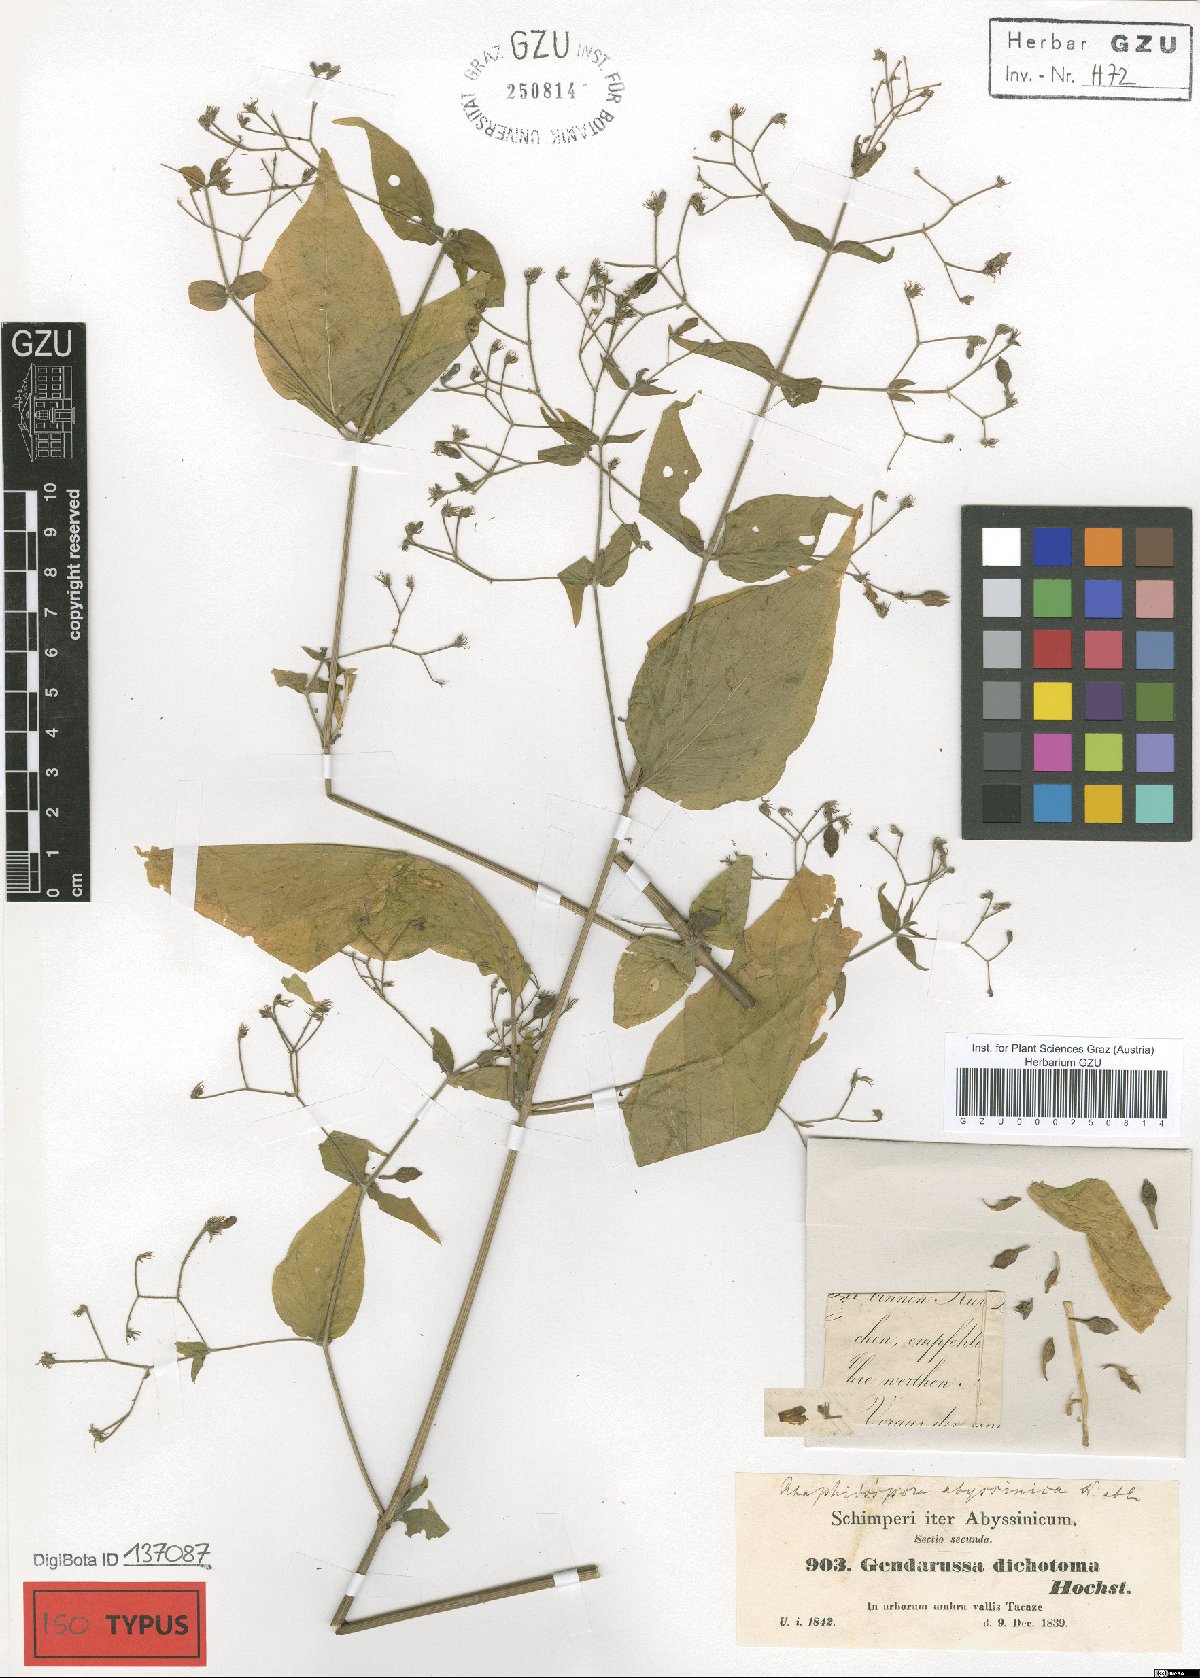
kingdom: Plantae
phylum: Tracheophyta
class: Magnoliopsida
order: Lamiales
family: Acanthaceae
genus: Justicia
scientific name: Justicia scandens
